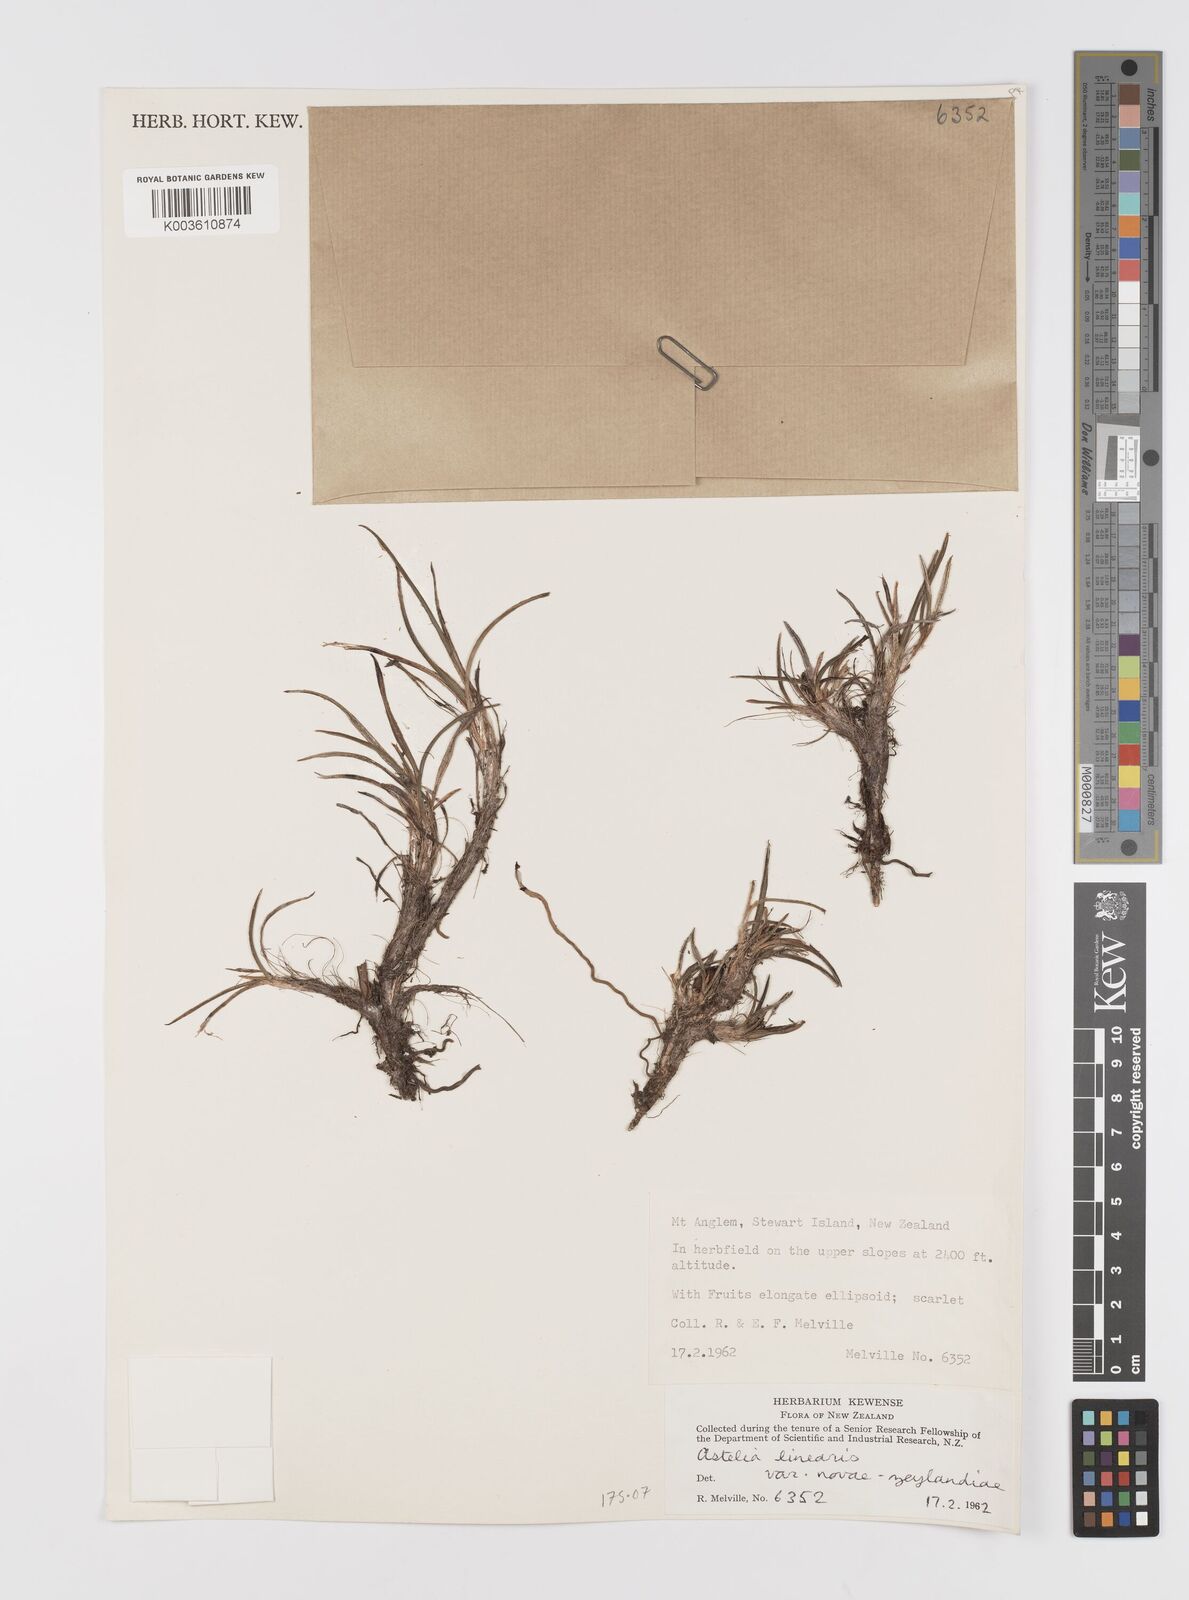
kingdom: Plantae
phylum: Tracheophyta
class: Liliopsida
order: Asparagales
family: Asteliaceae
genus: Astelia
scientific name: Astelia linearis
